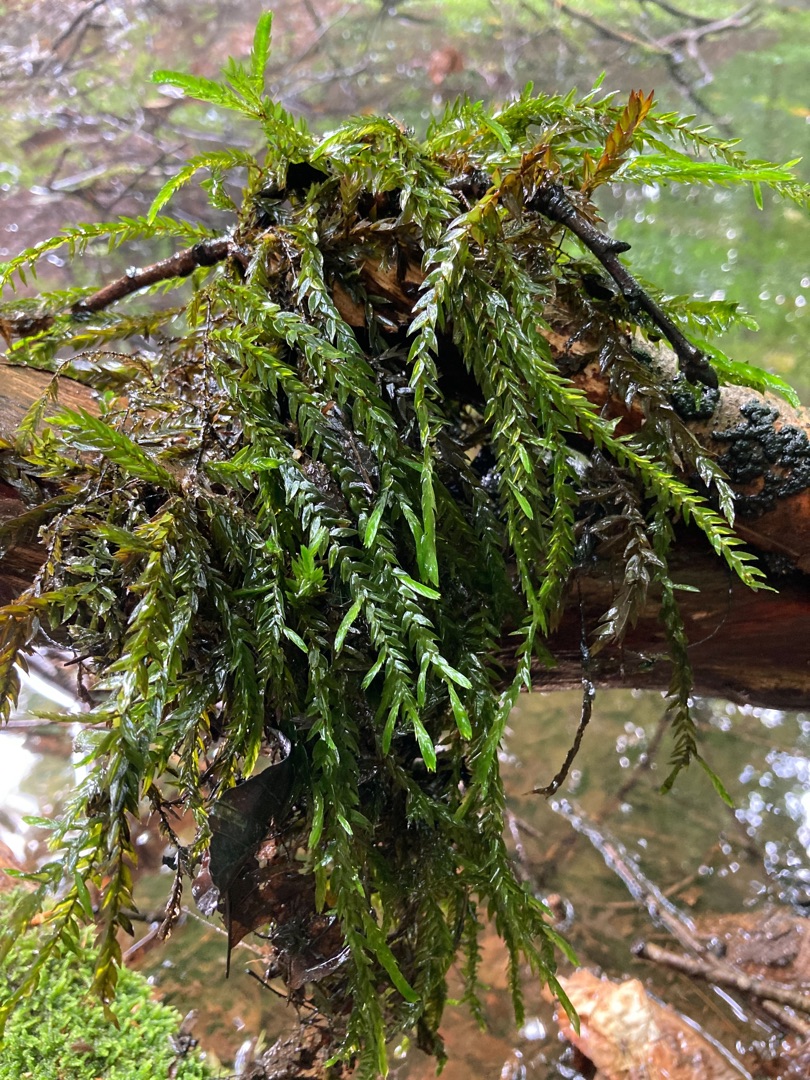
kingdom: Plantae
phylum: Bryophyta
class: Bryopsida
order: Hypnales
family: Fontinalaceae
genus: Fontinalis
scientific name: Fontinalis antipyretica
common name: Stor kildemos
